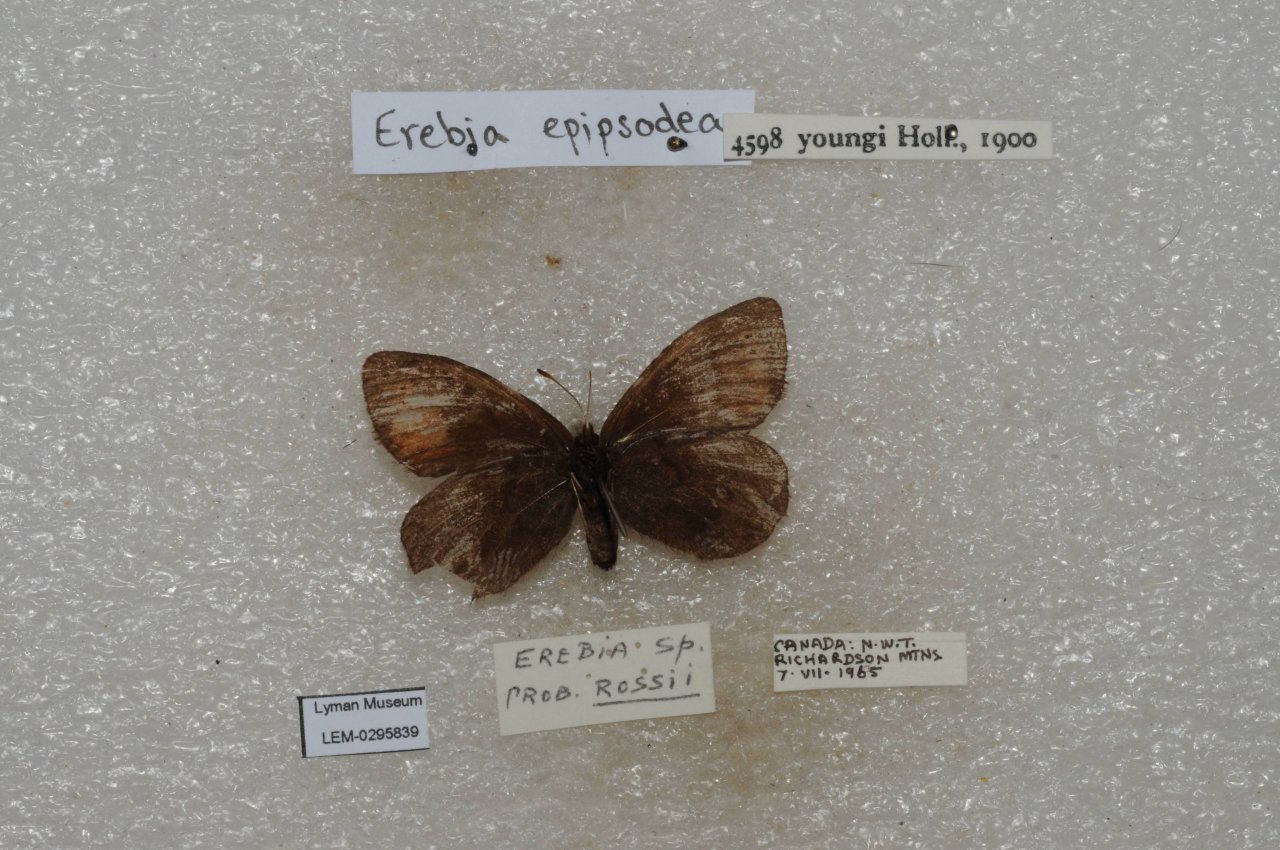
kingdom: Animalia
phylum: Arthropoda
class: Insecta
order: Lepidoptera
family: Nymphalidae
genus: Erebia
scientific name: Erebia youngi
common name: Four-dotted Alpine
